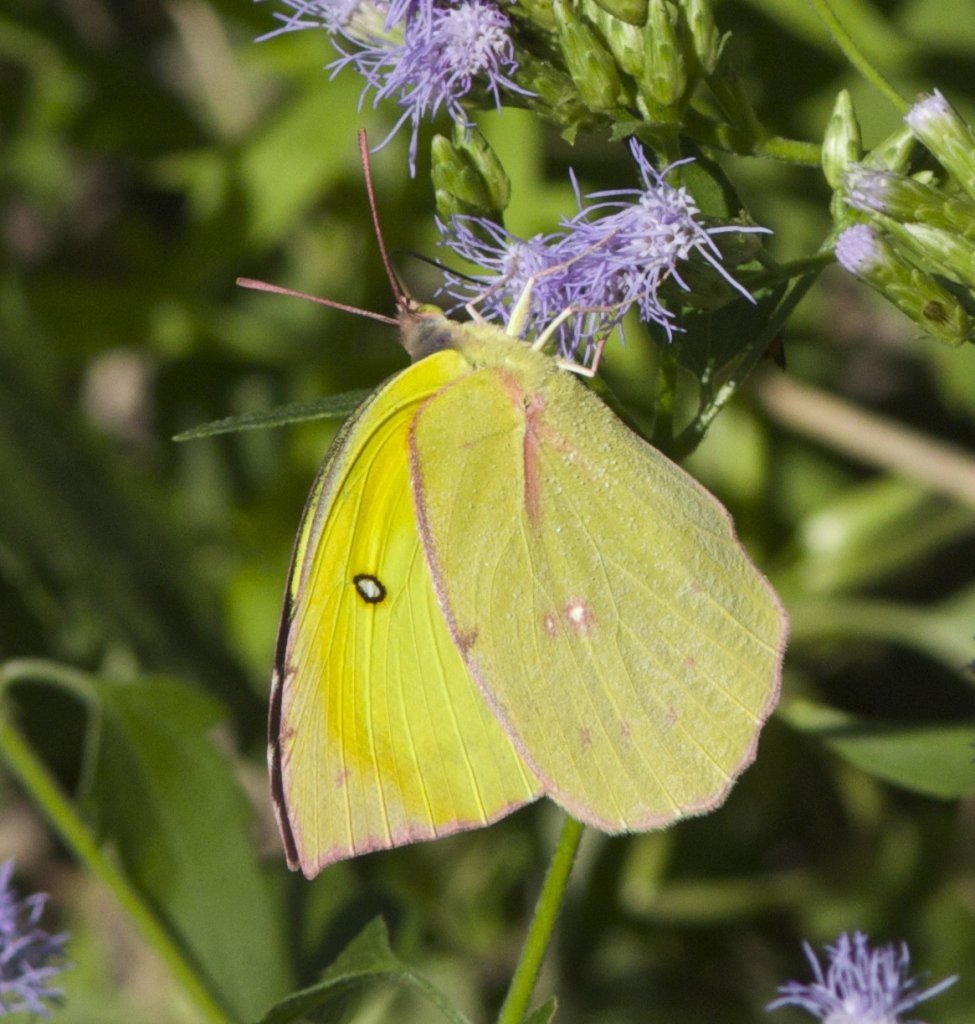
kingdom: Animalia
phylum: Arthropoda
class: Insecta
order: Lepidoptera
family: Pieridae
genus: Zerene
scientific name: Zerene cesonia
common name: Southern Dogface
